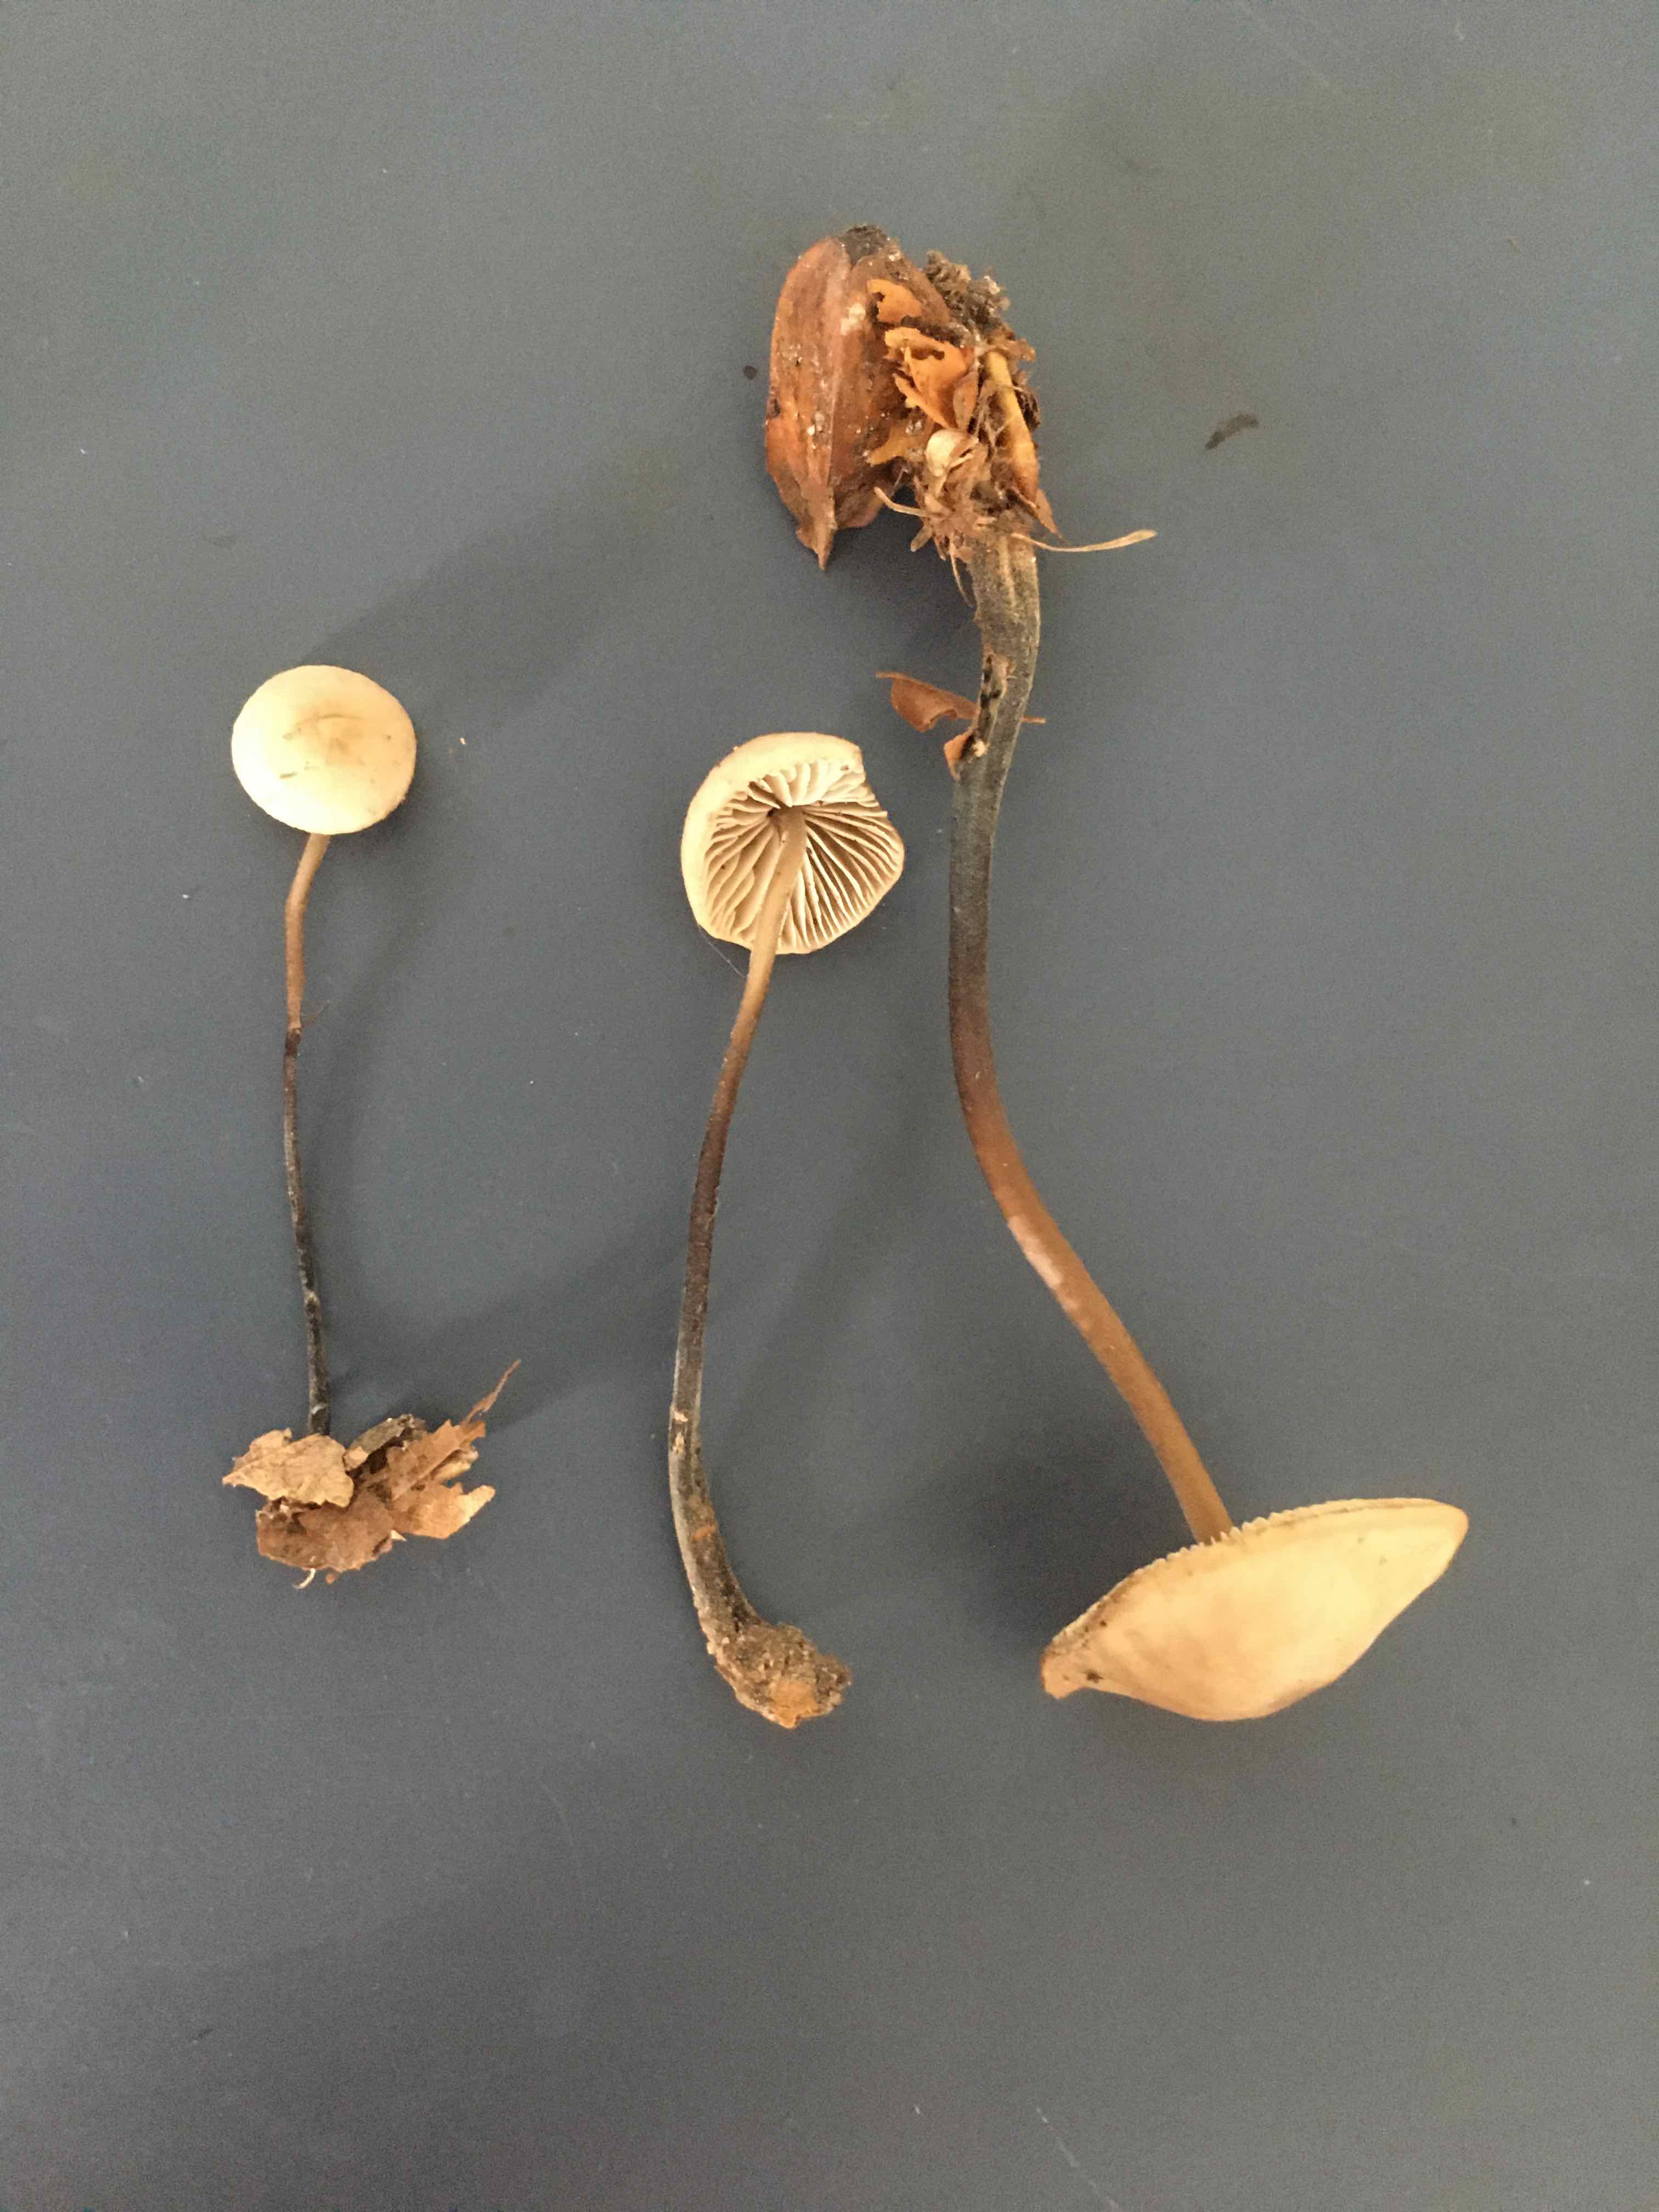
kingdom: Fungi
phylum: Basidiomycota
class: Agaricomycetes
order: Agaricales
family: Omphalotaceae
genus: Mycetinis
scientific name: Mycetinis alliaceus
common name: stor løghat
